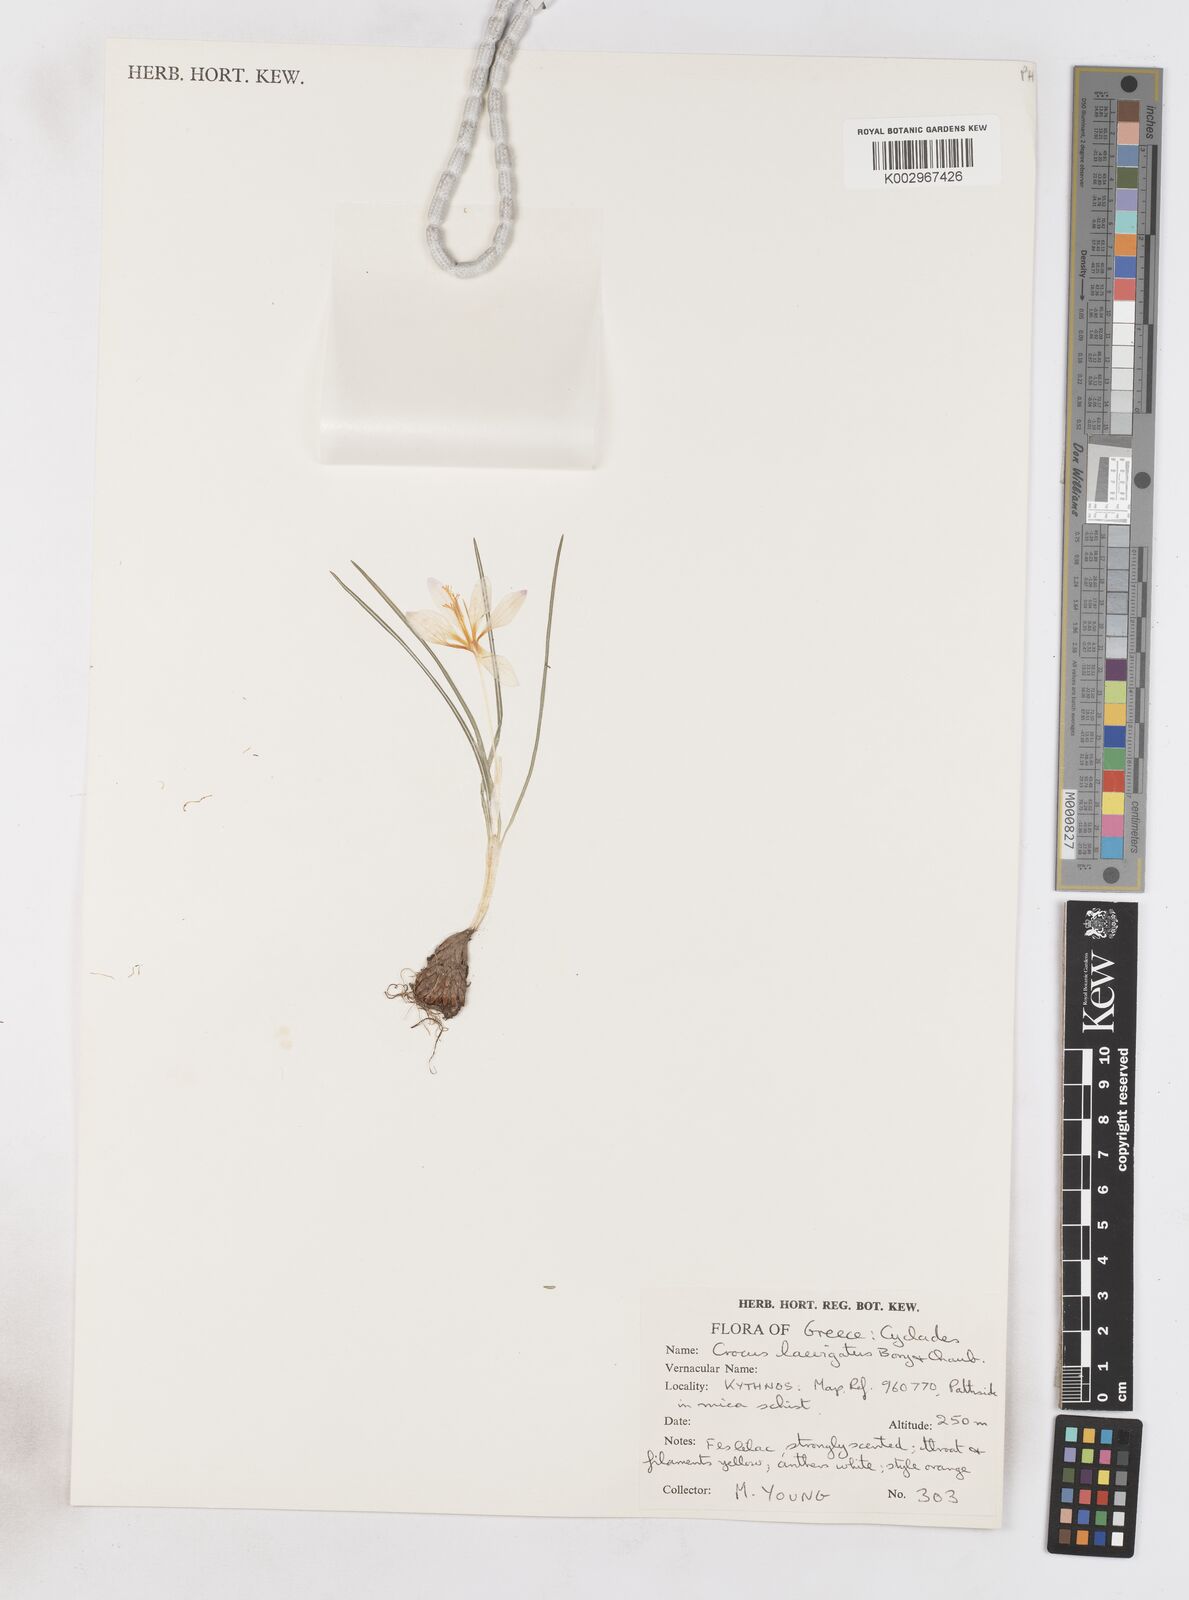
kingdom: Plantae
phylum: Tracheophyta
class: Liliopsida
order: Asparagales
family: Iridaceae
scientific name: Iridaceae
